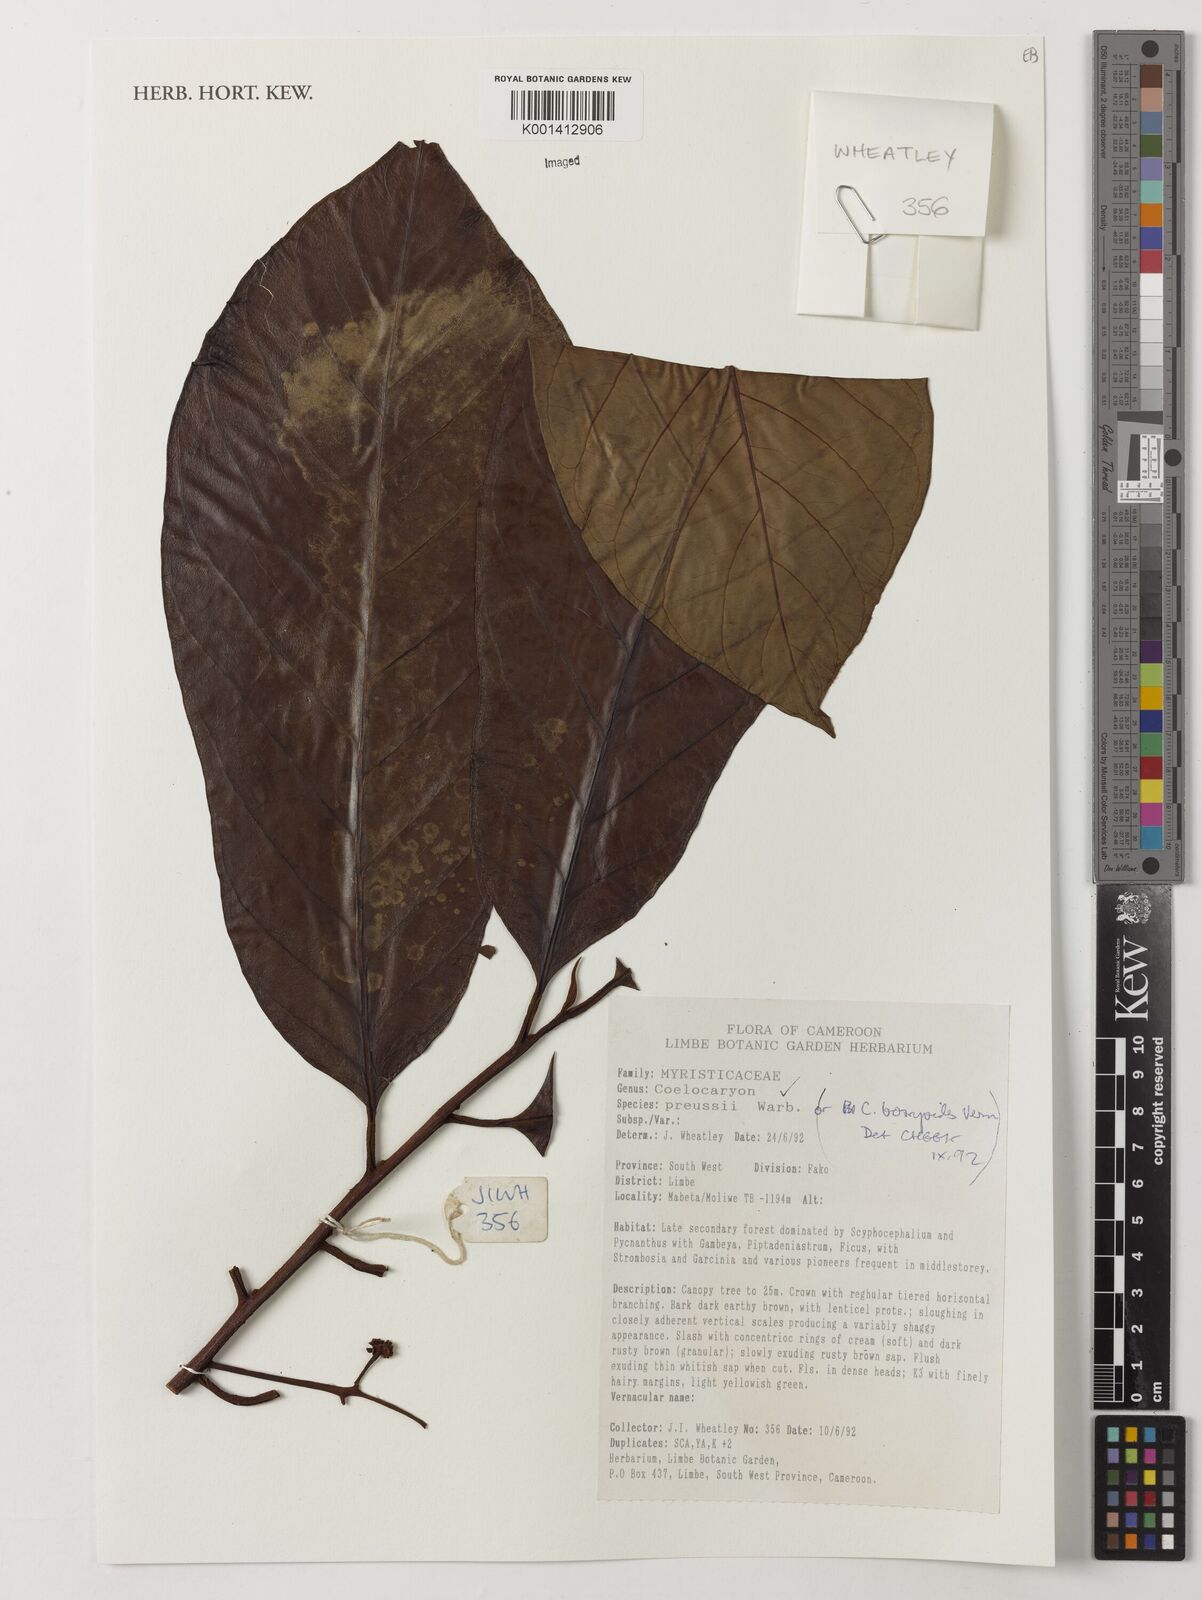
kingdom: Plantae
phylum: Tracheophyta
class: Magnoliopsida
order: Magnoliales
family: Myristicaceae
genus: Coelocaryon
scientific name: Coelocaryon preussii
